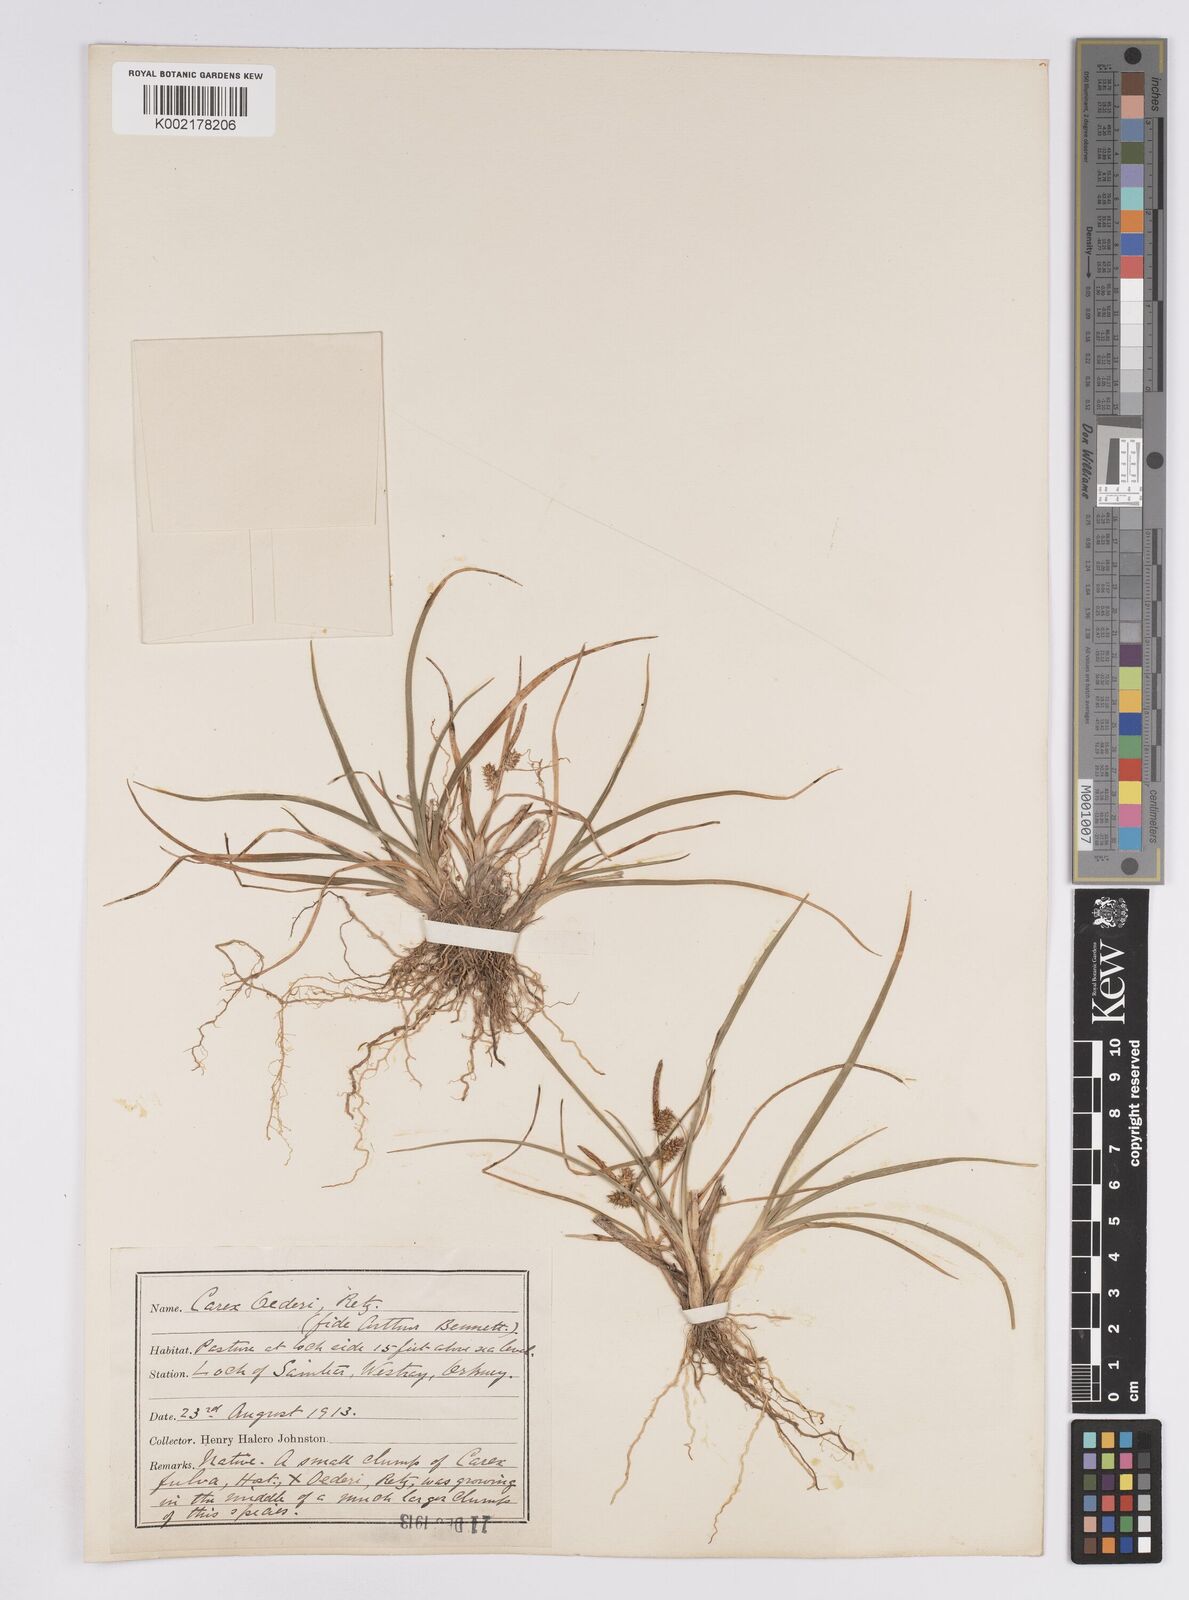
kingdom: Plantae
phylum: Tracheophyta
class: Liliopsida
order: Poales
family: Cyperaceae
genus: Carex
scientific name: Carex demissa
